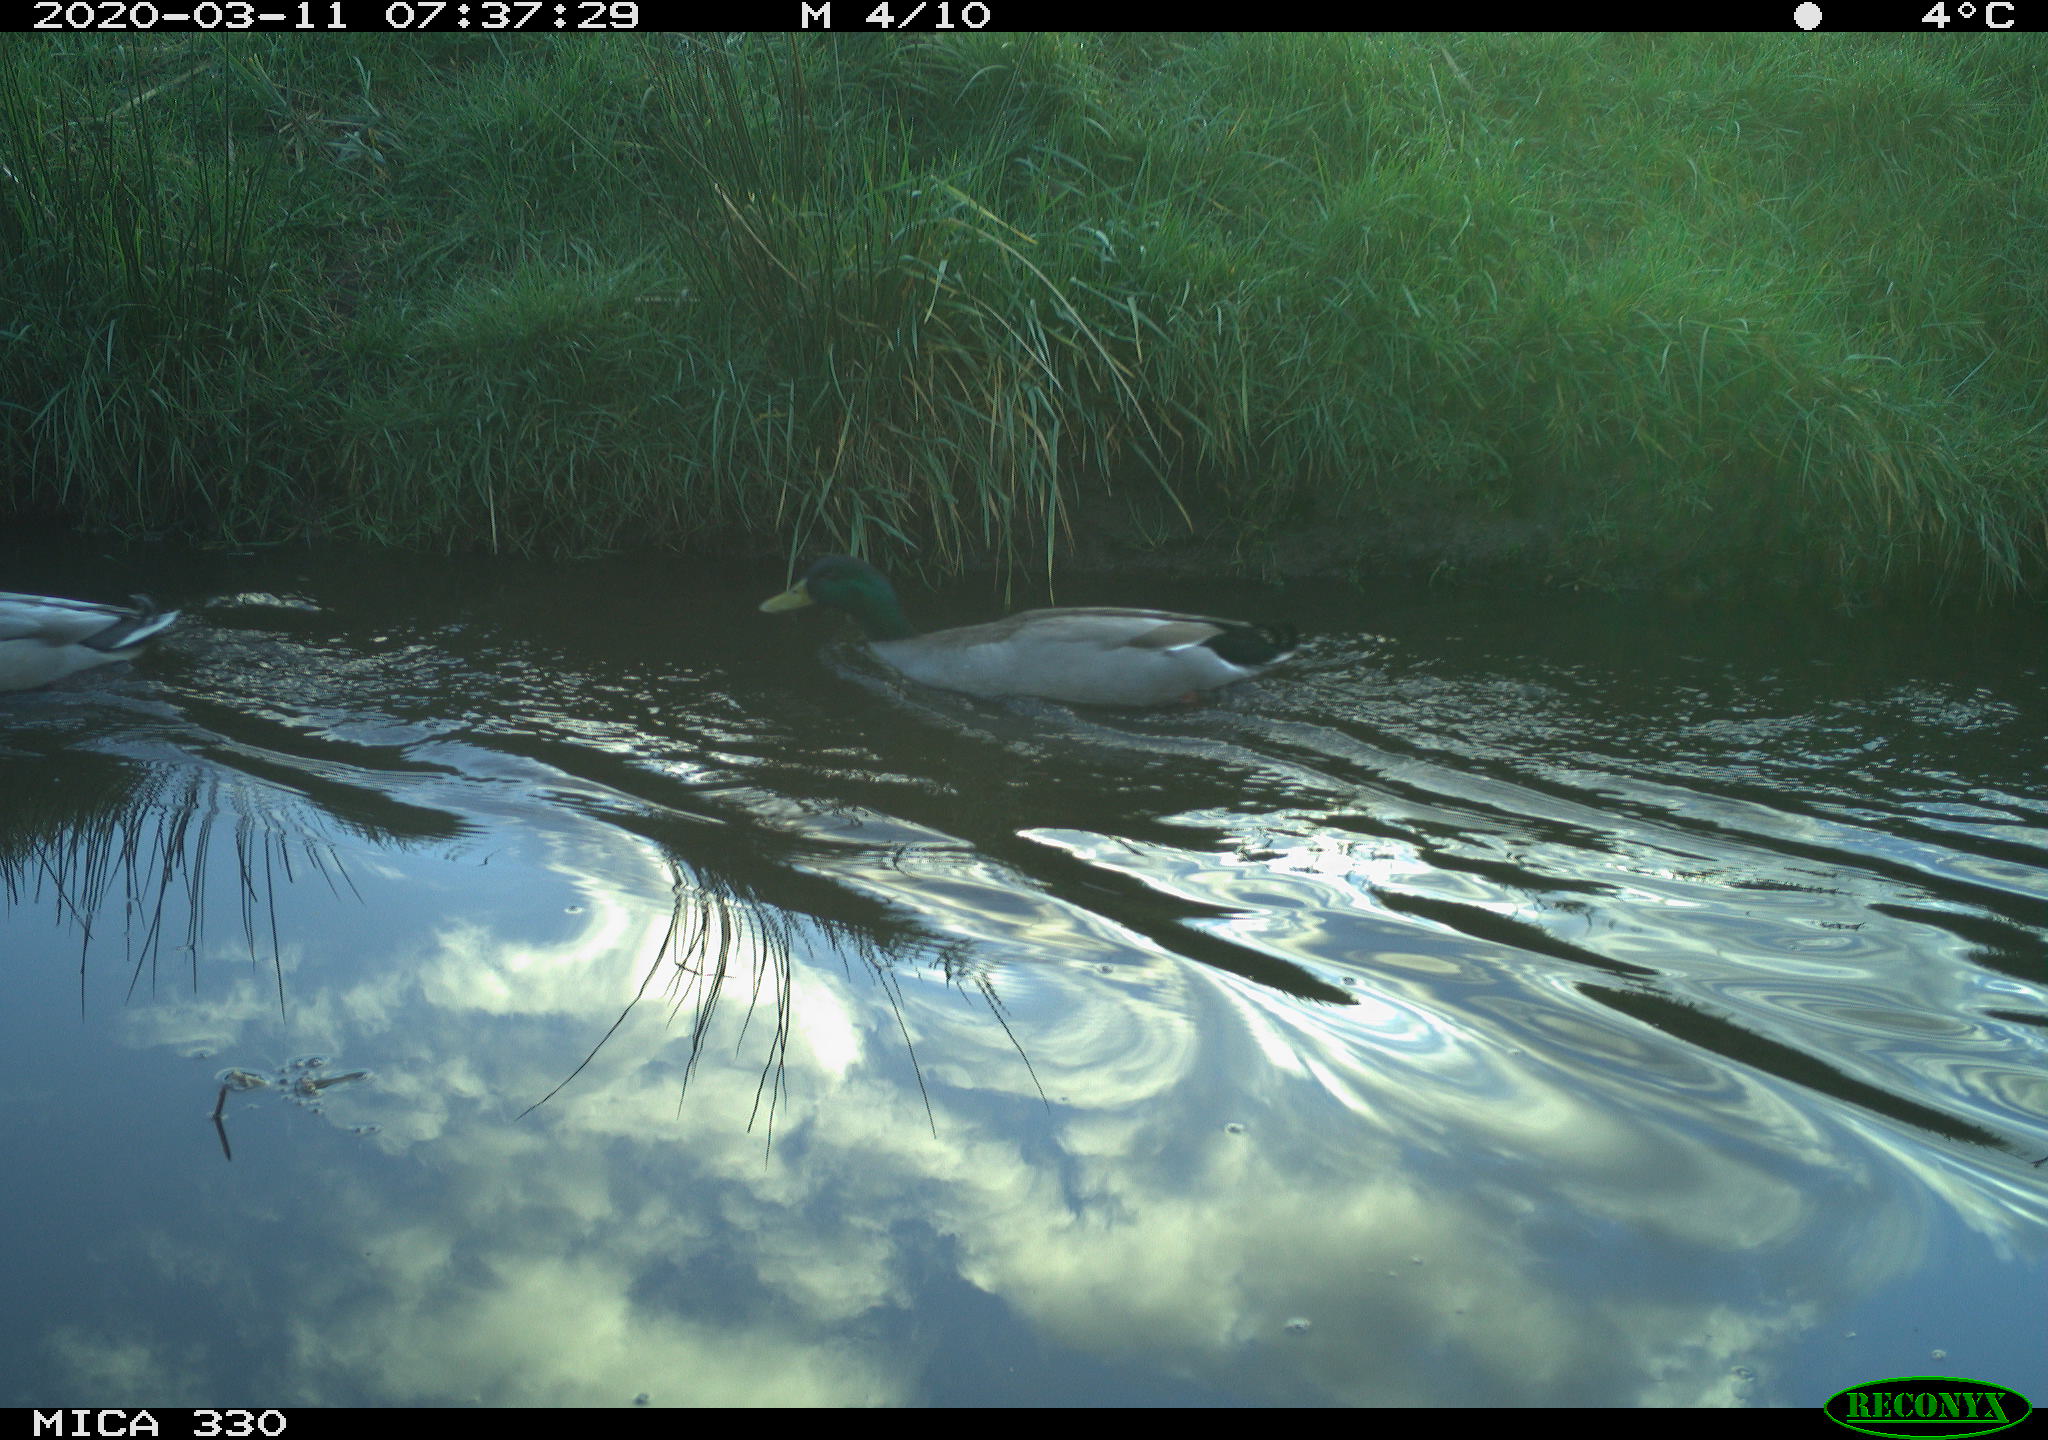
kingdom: Animalia
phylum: Chordata
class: Aves
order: Anseriformes
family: Anatidae
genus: Anas
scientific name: Anas platyrhynchos
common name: Mallard
